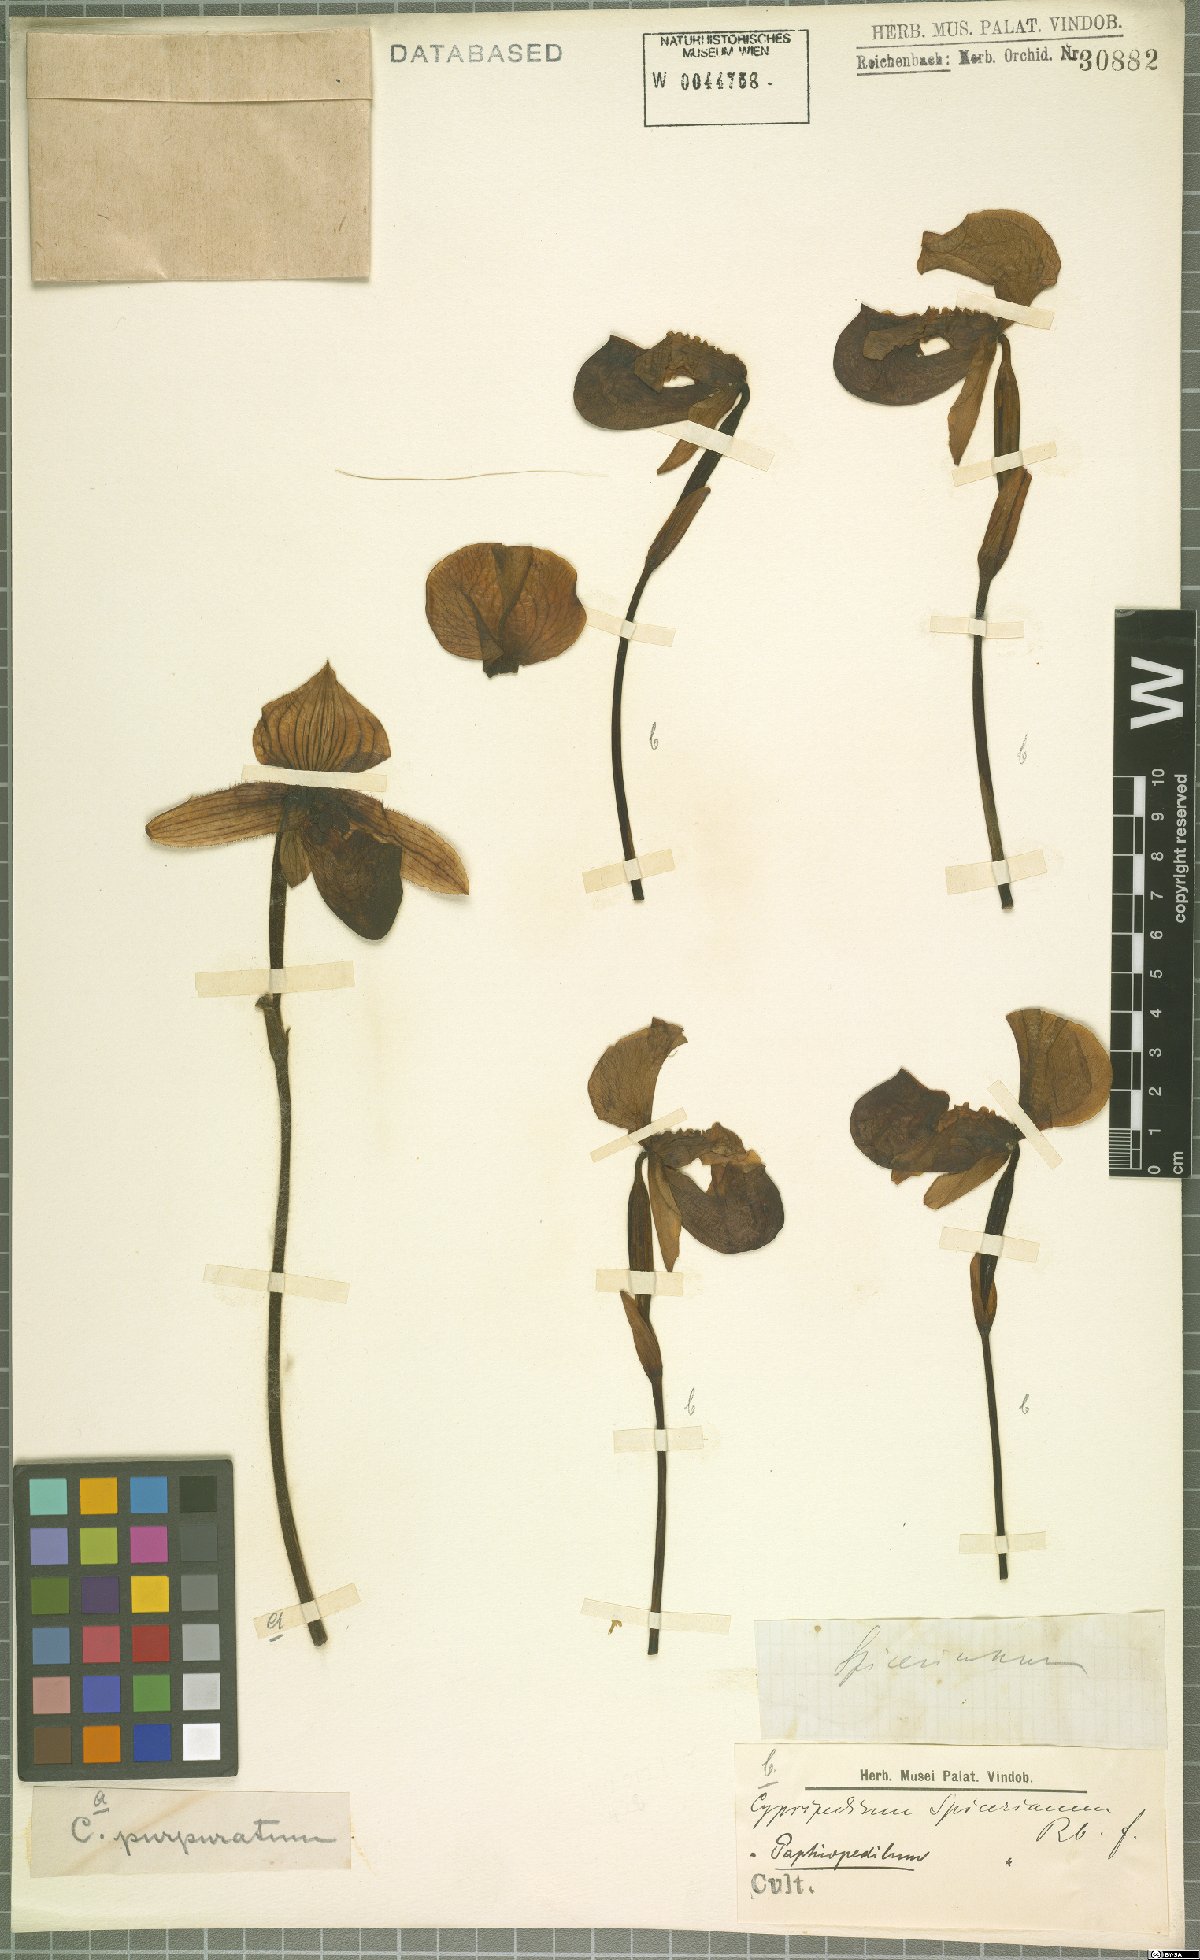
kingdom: Plantae
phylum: Tracheophyta
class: Liliopsida
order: Asparagales
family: Orchidaceae
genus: Paphiopedilum
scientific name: Paphiopedilum spicerianum
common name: Spicer’s paphiopedilum
